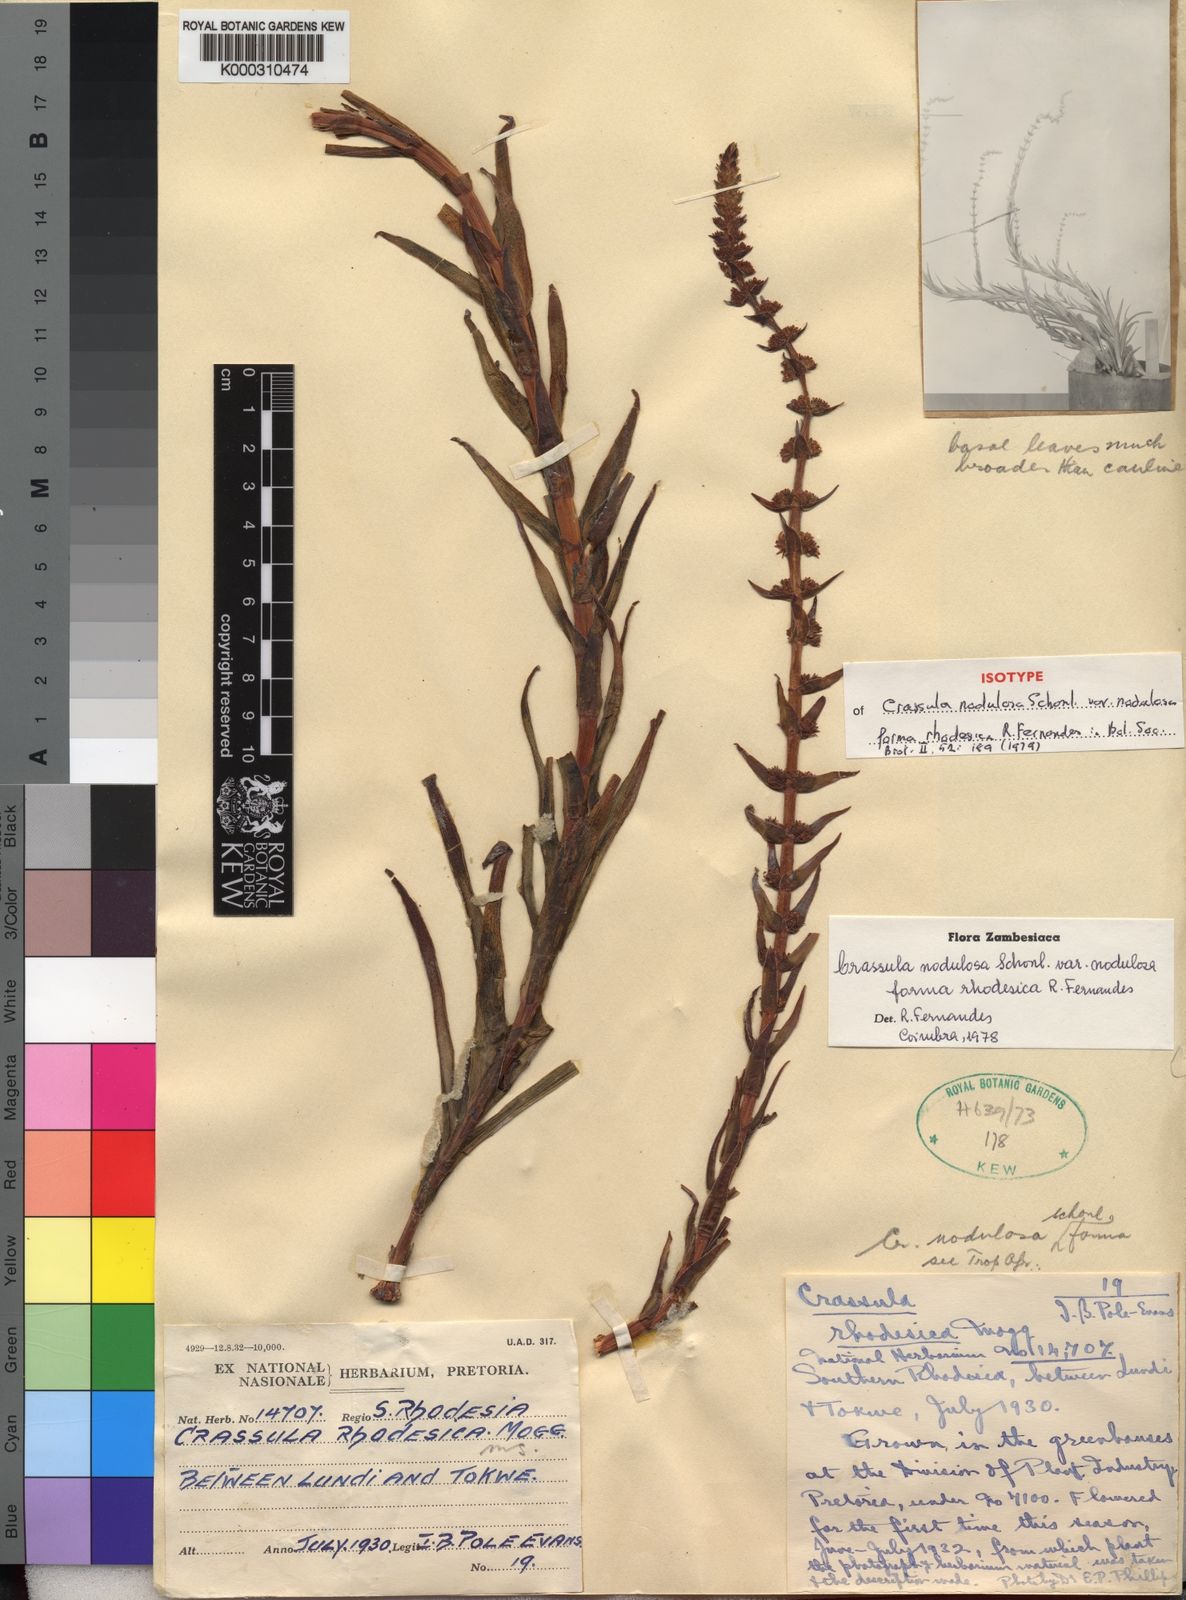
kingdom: Plantae
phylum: Tracheophyta
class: Magnoliopsida
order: Saxifragales
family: Crassulaceae
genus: Crassula
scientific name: Crassula
